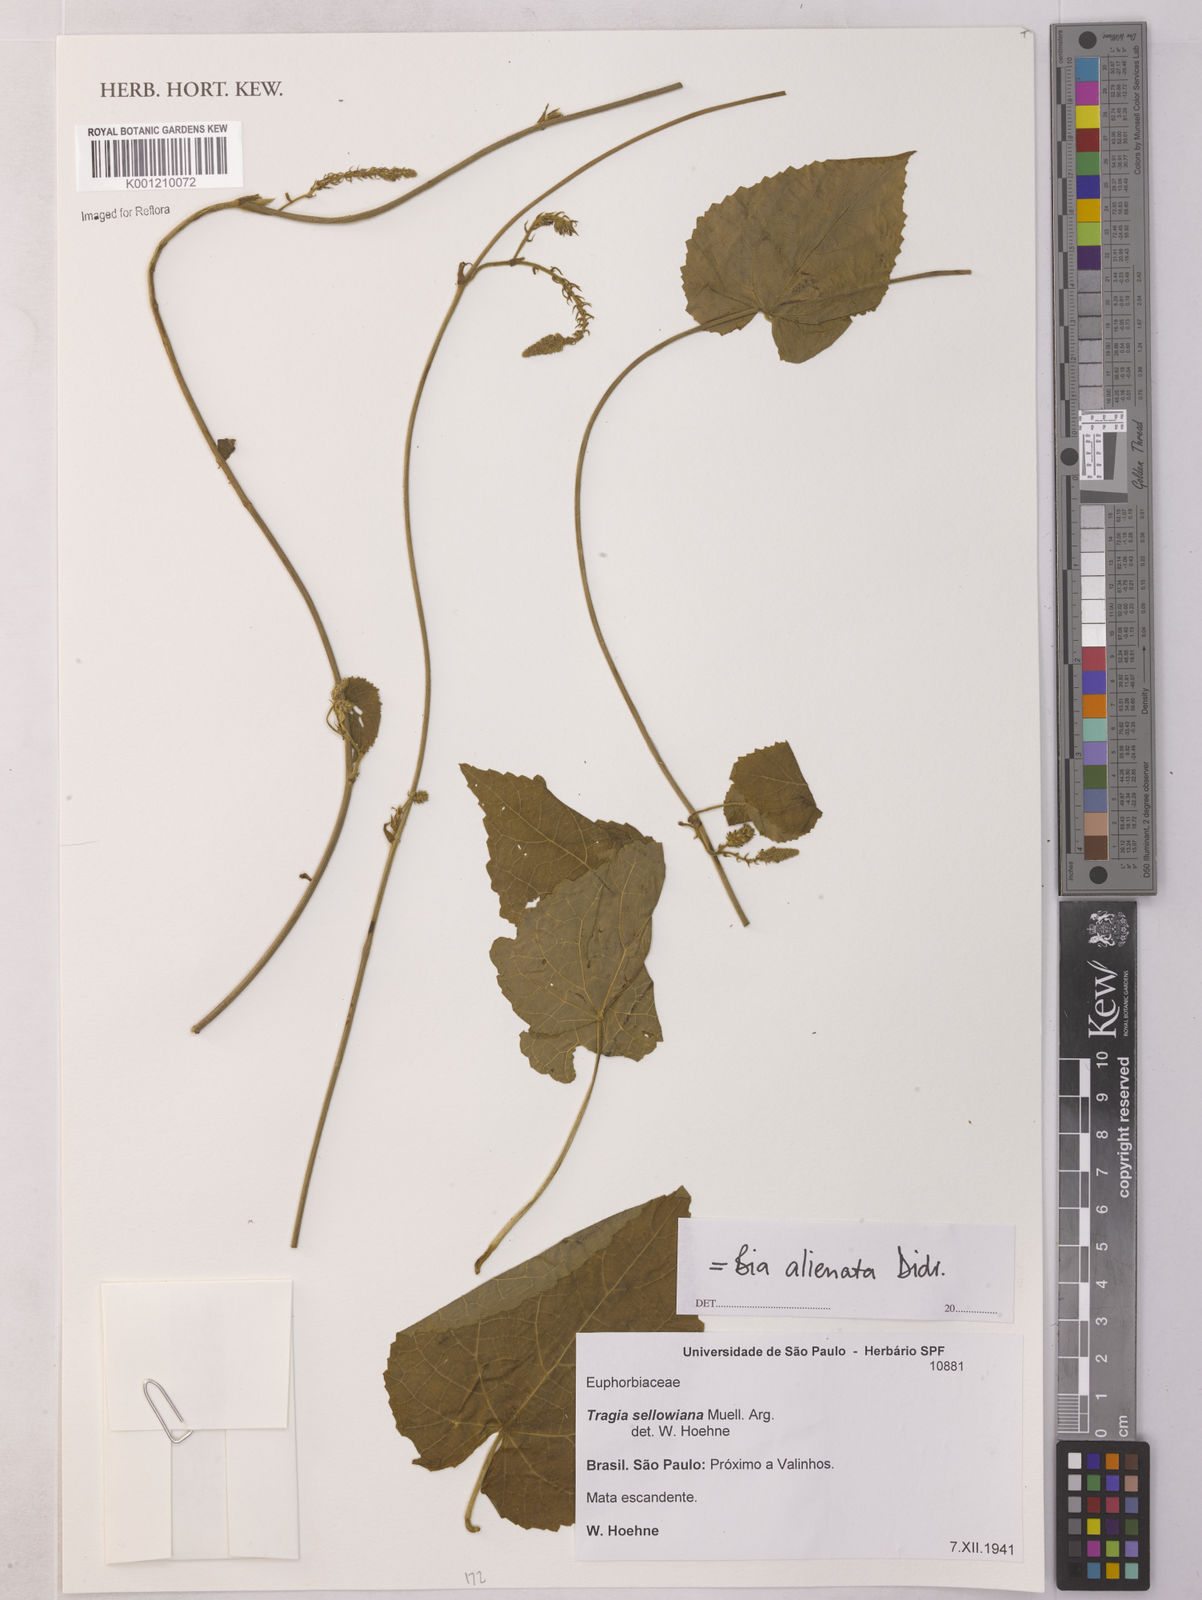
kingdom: Plantae
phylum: Tracheophyta
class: Magnoliopsida
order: Malpighiales
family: Euphorbiaceae
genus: Bia
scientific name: Bia alienata
